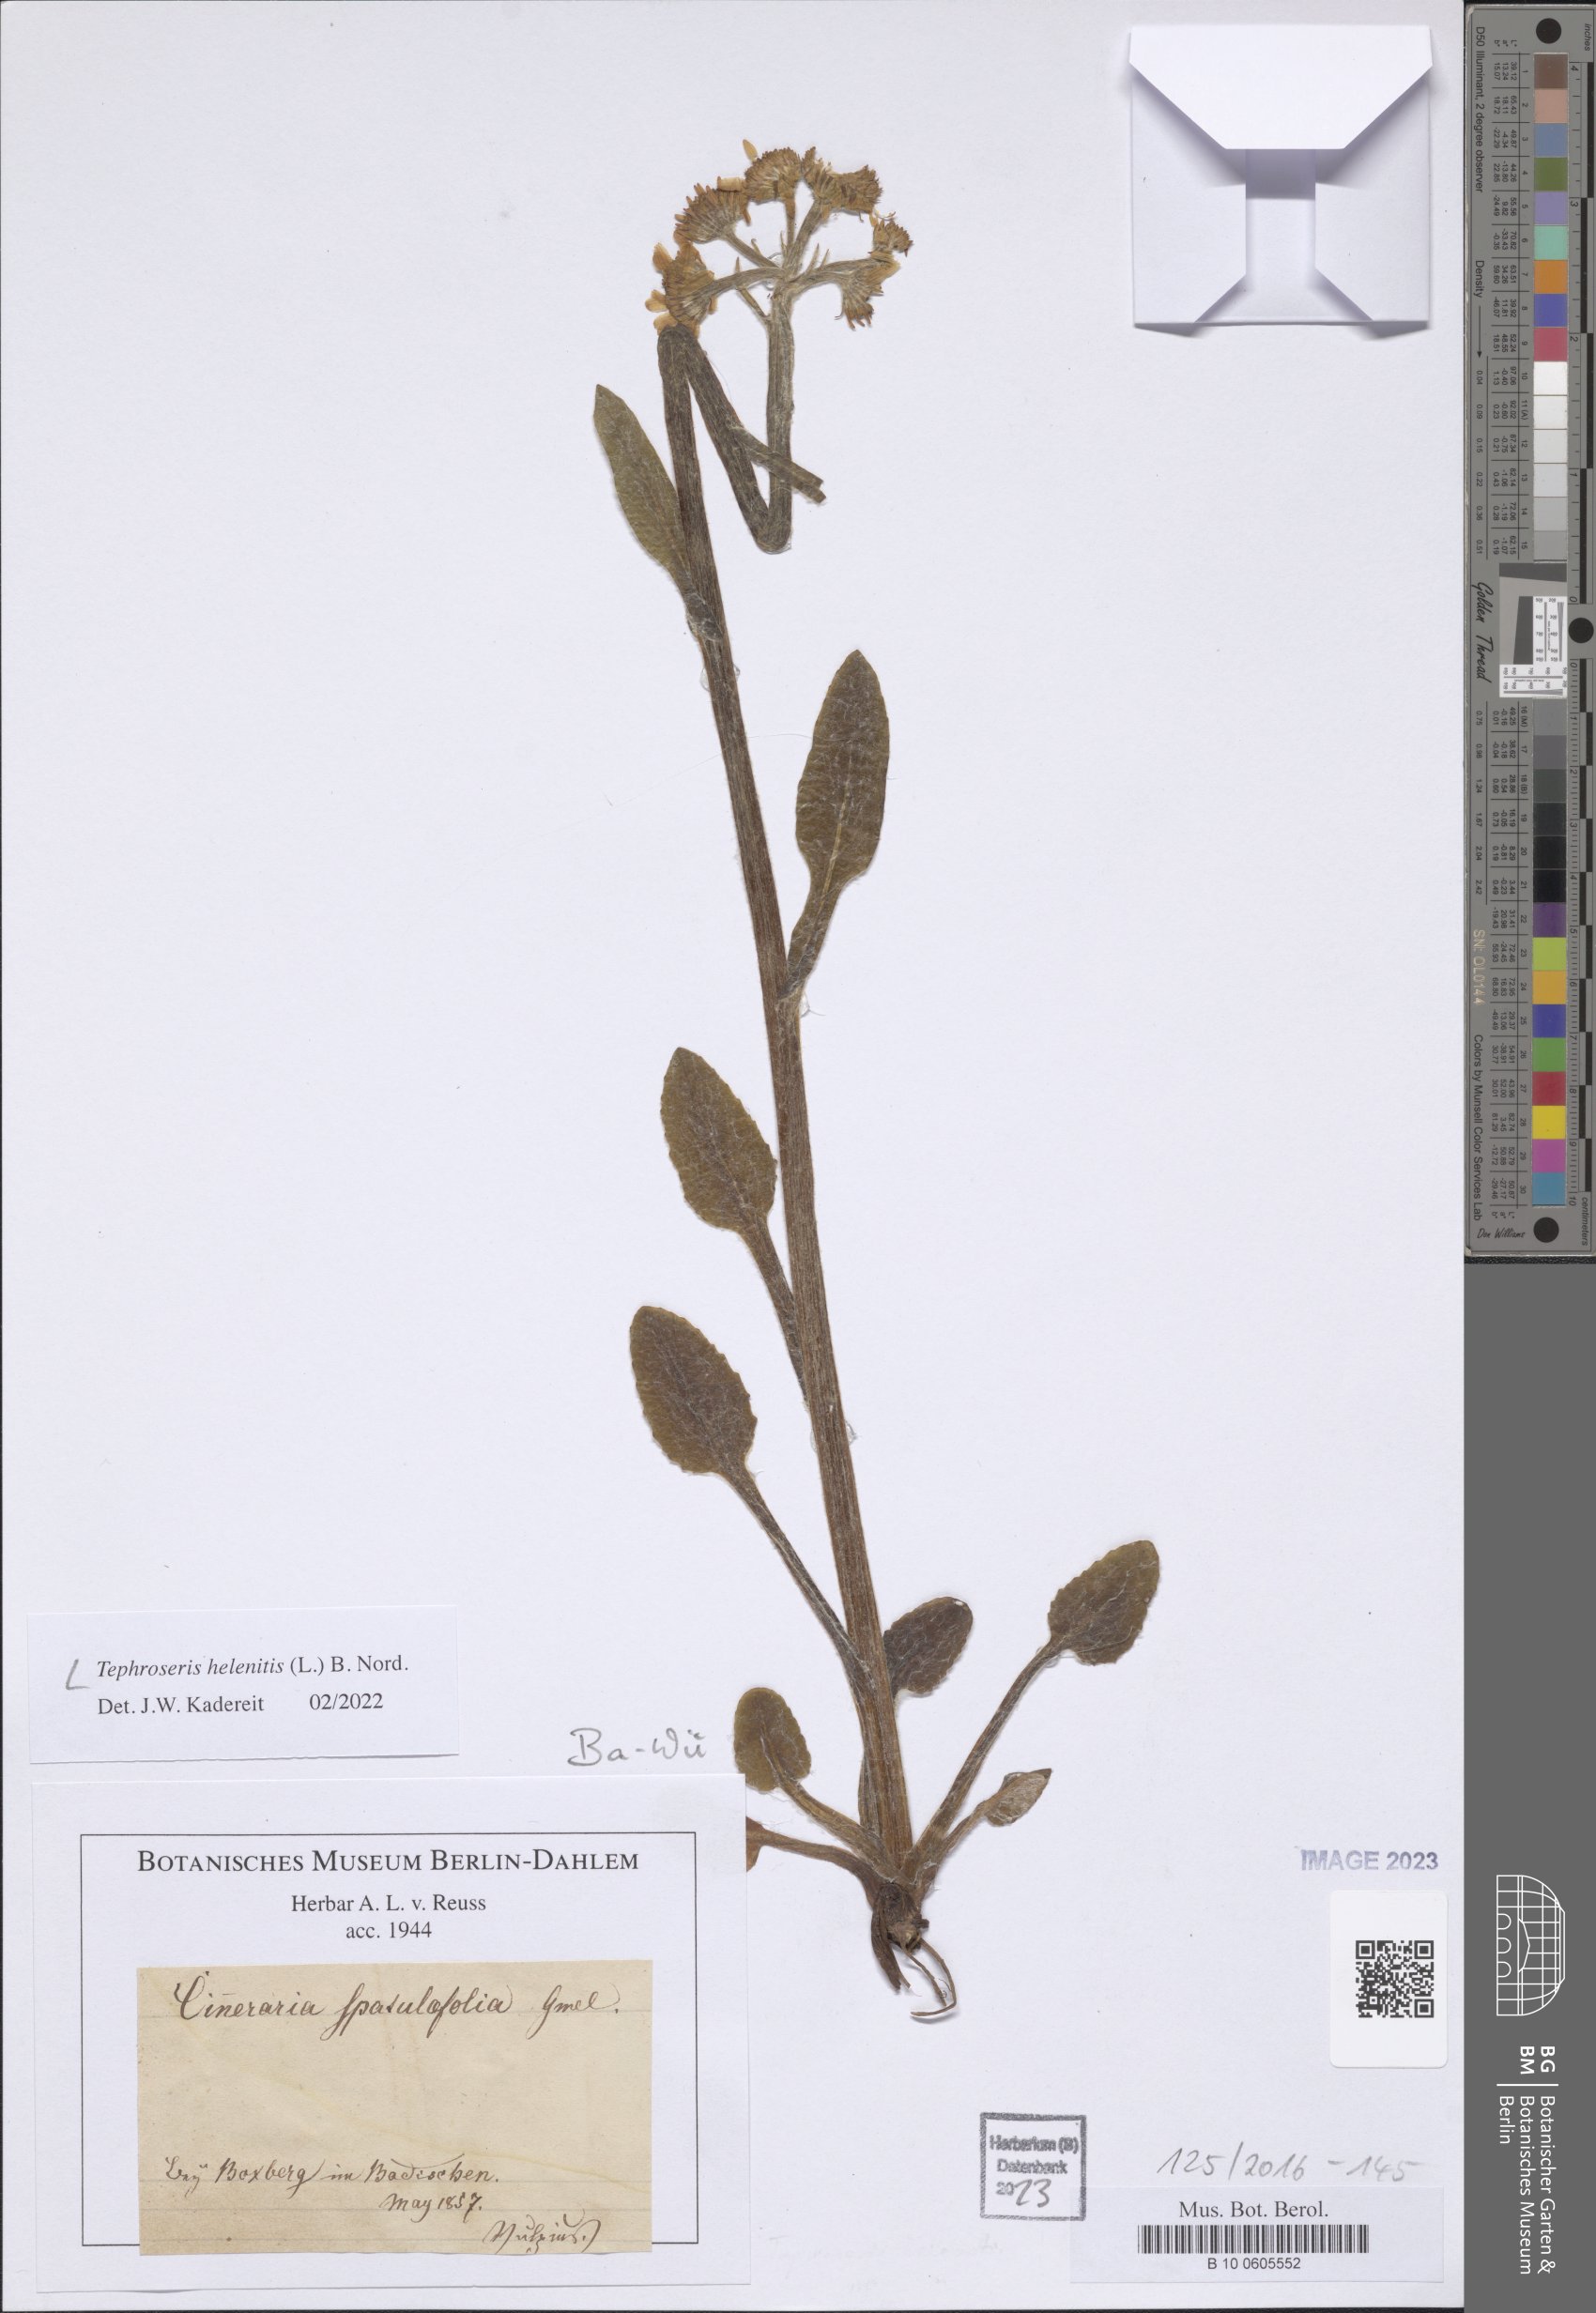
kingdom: Plantae
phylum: Tracheophyta
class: Magnoliopsida
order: Asterales
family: Asteraceae
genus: Tephroseris
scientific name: Tephroseris helenitis
